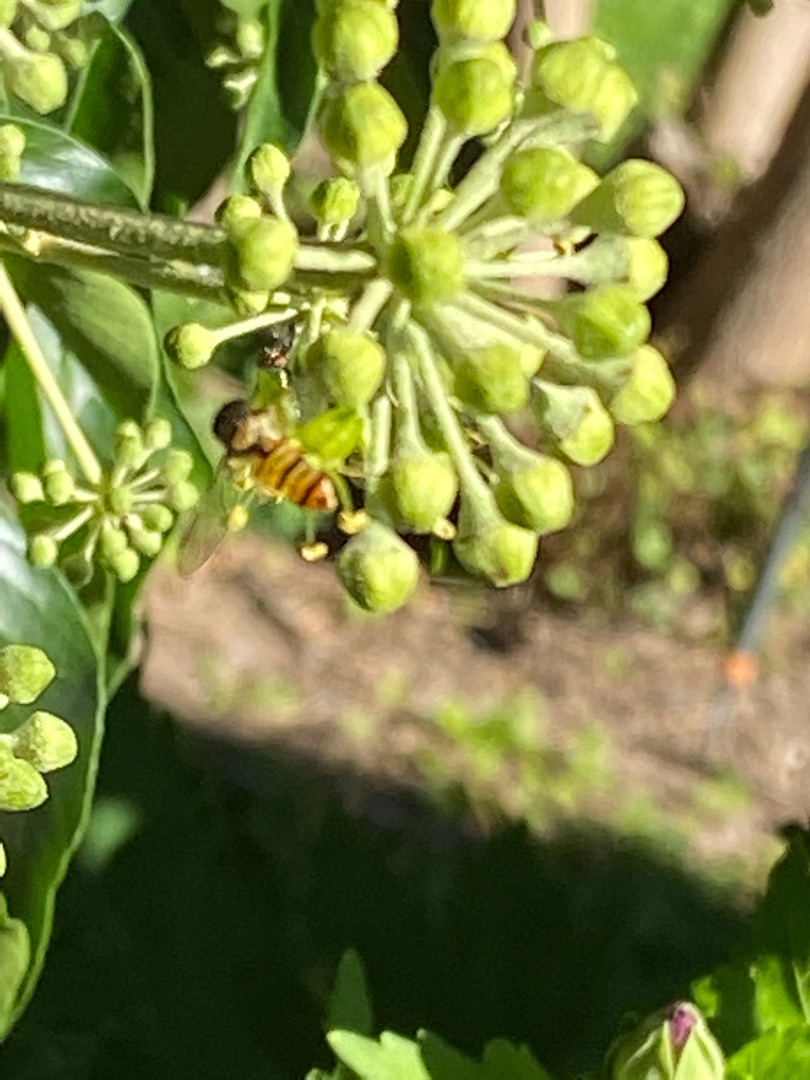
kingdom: Animalia
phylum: Arthropoda
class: Insecta
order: Diptera
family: Syrphidae
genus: Episyrphus
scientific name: Episyrphus balteatus
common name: Dobbeltbåndet svirreflue
